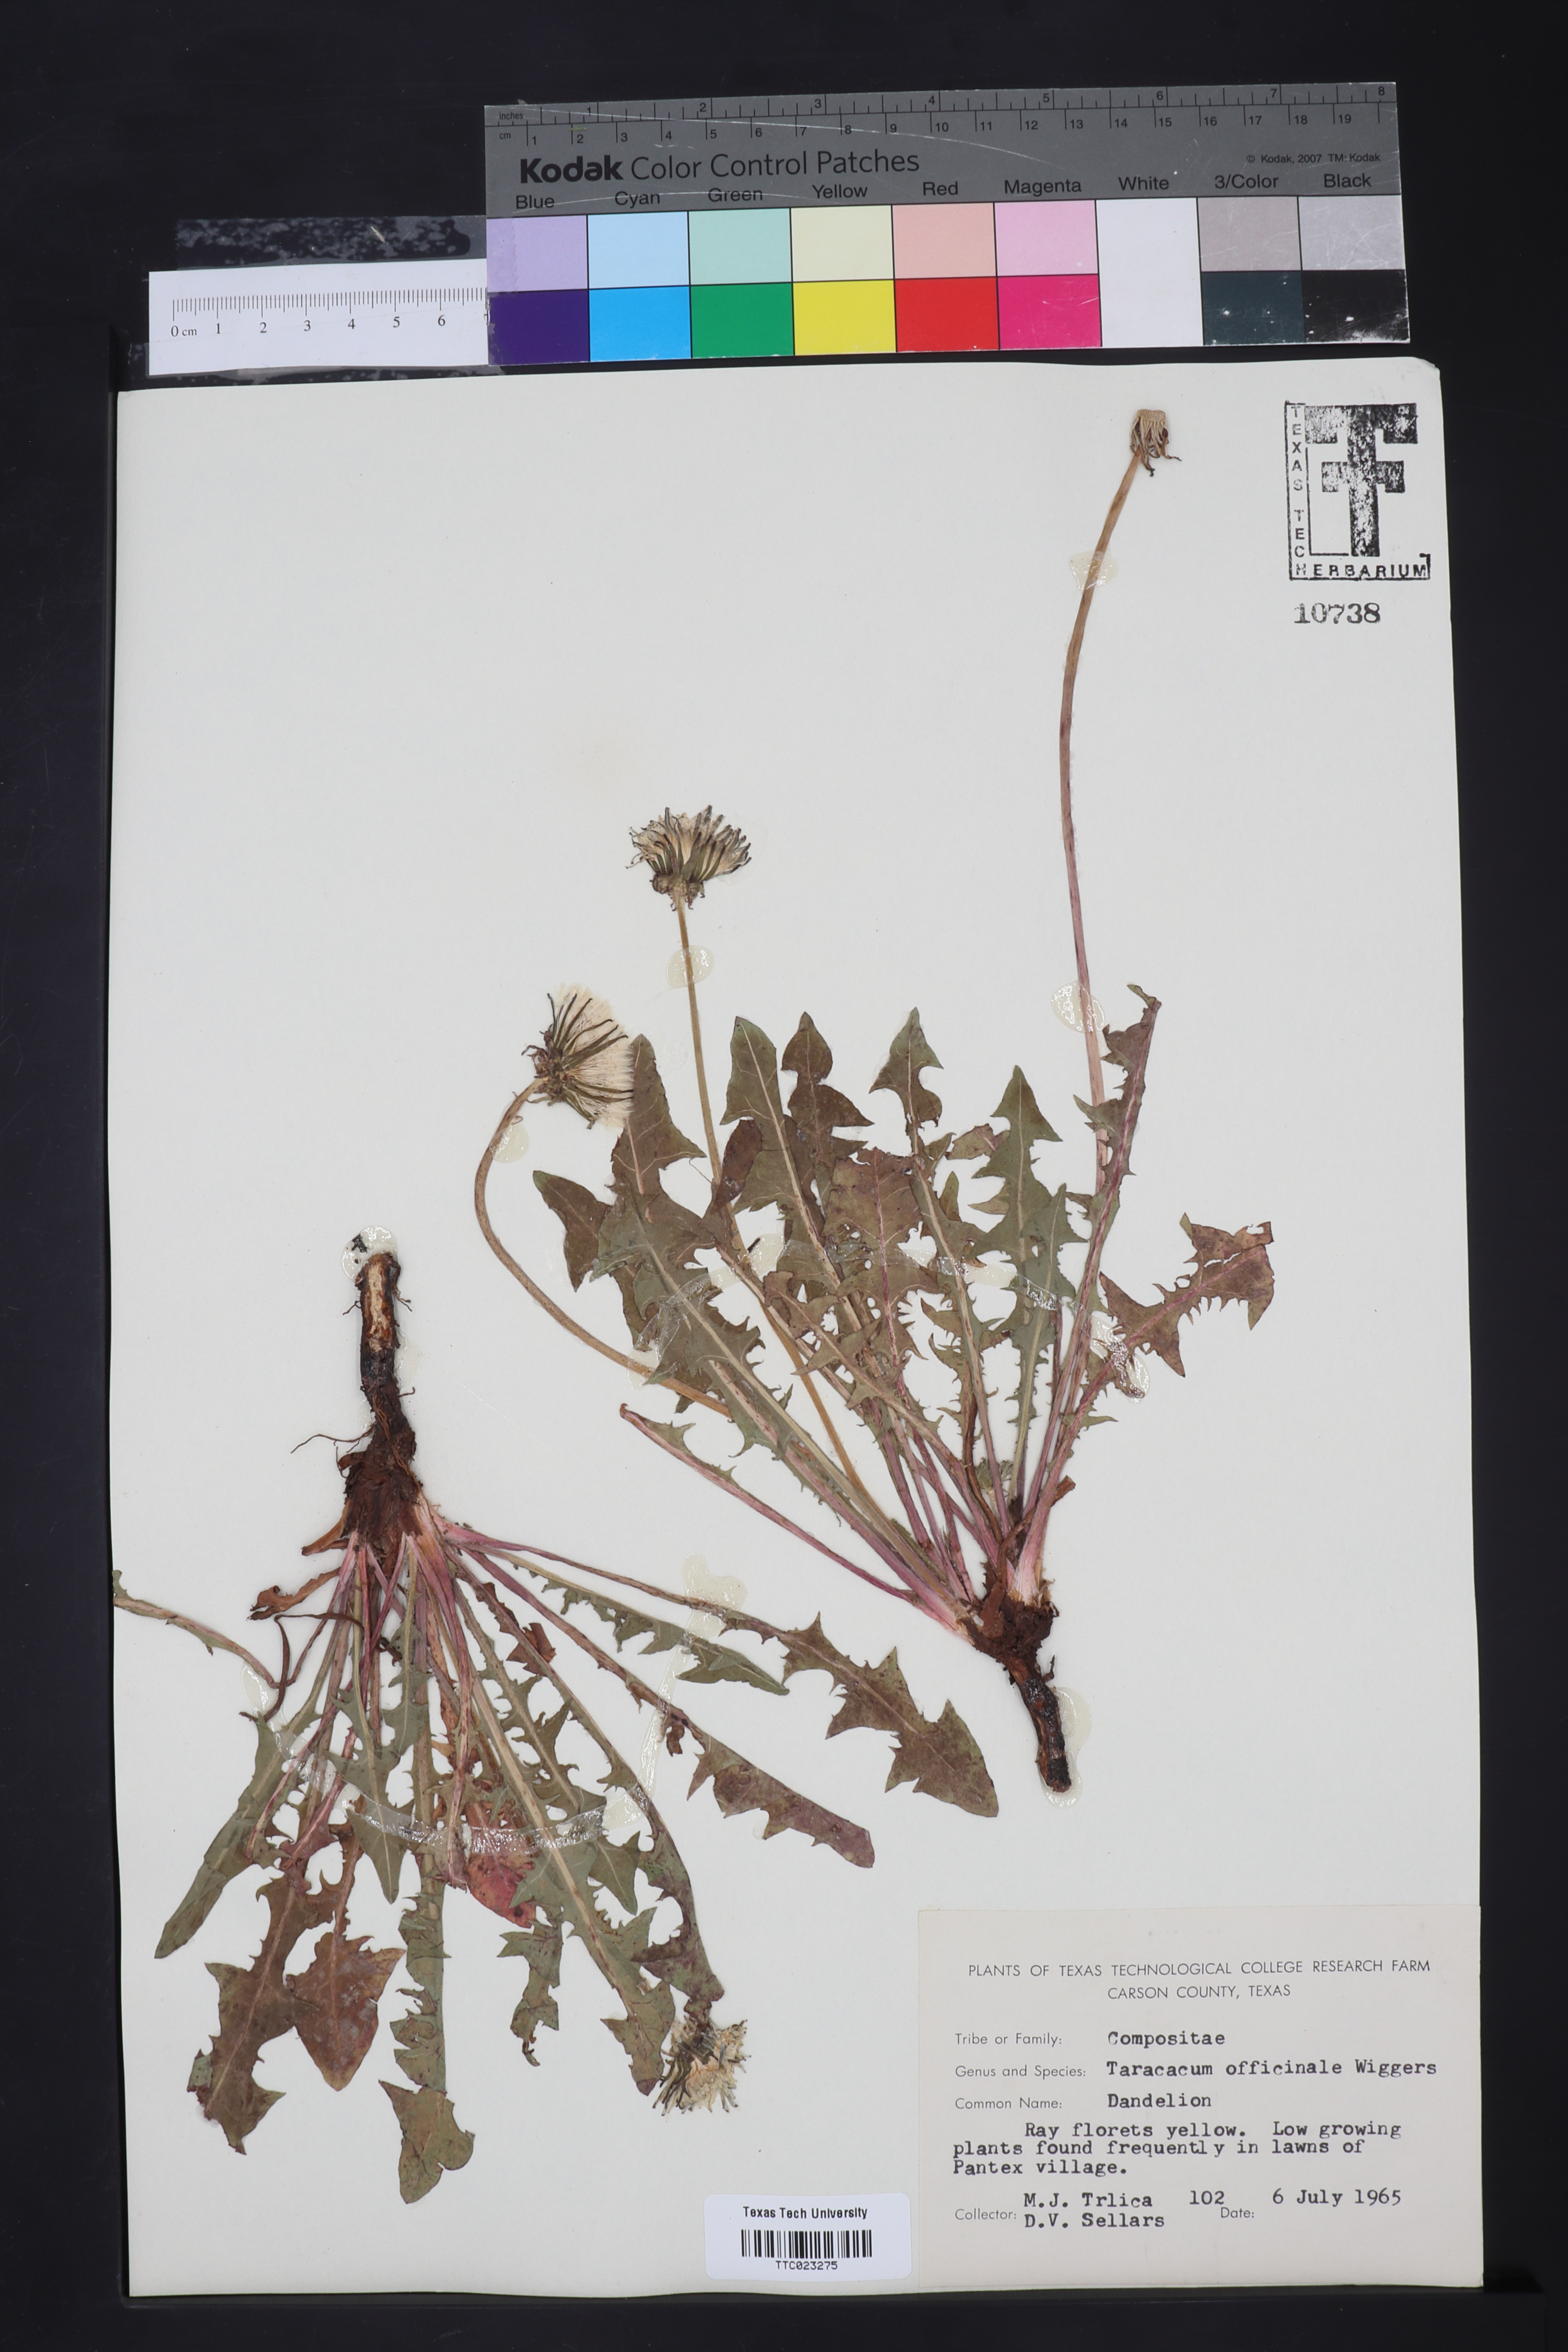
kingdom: Plantae
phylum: Tracheophyta
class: Magnoliopsida
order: Asterales
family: Asteraceae
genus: Taraxacum
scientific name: Taraxacum officinale
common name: Common dandelion
